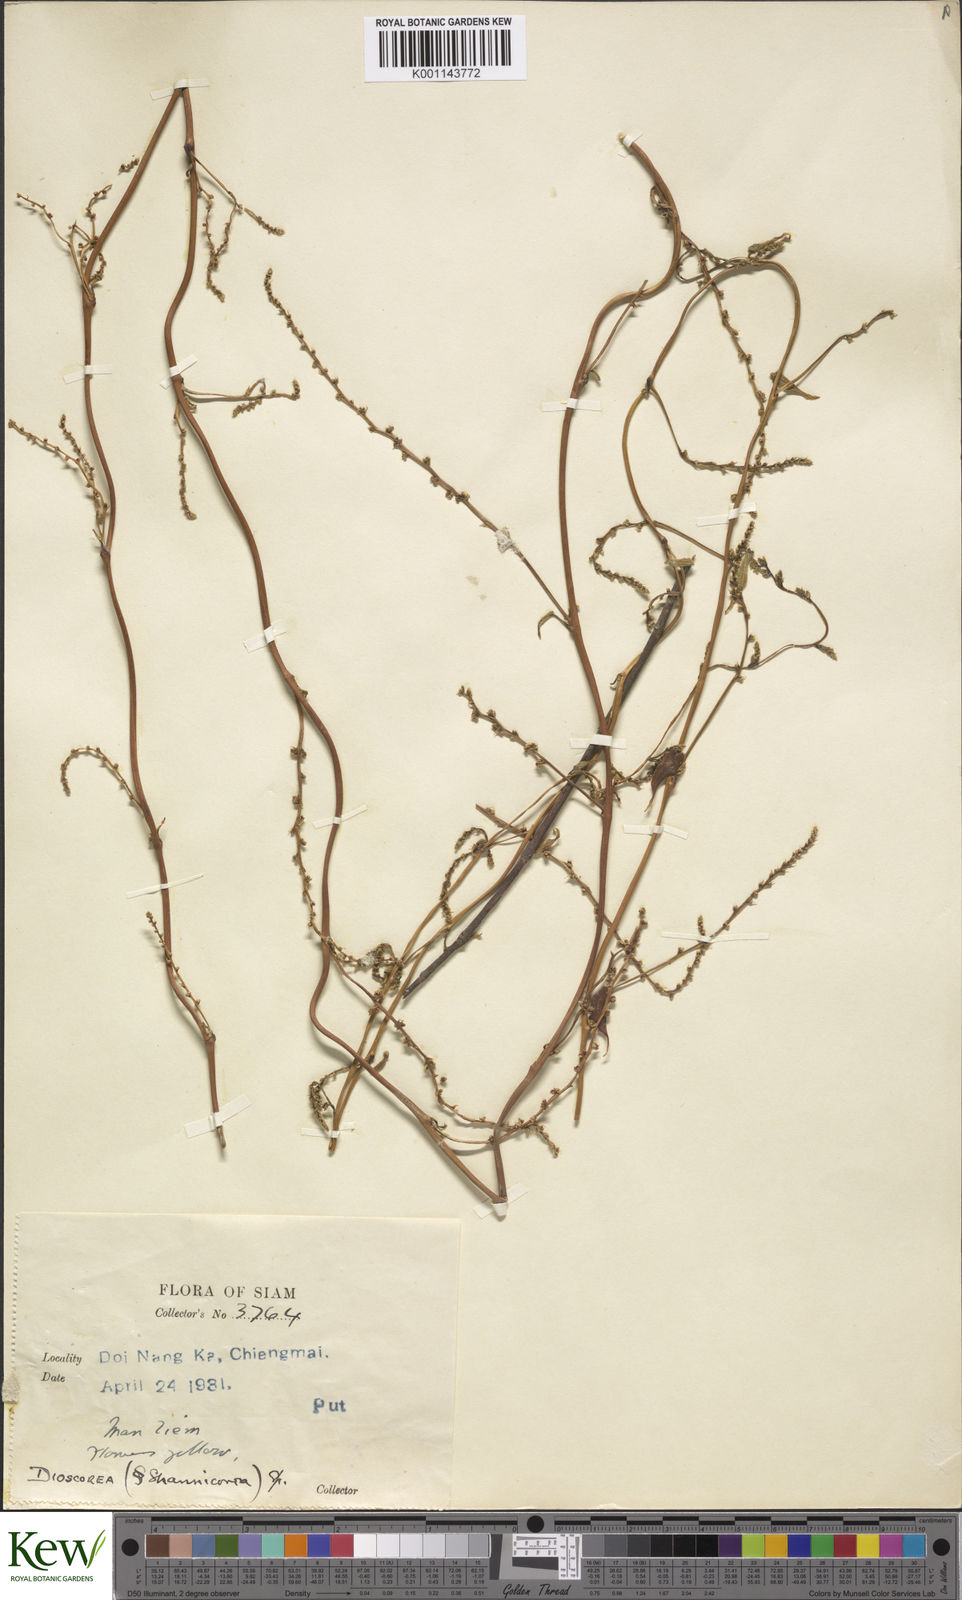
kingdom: Plantae
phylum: Tracheophyta
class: Liliopsida
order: Dioscoreales
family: Dioscoreaceae
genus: Dioscorea
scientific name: Dioscorea craibiana
